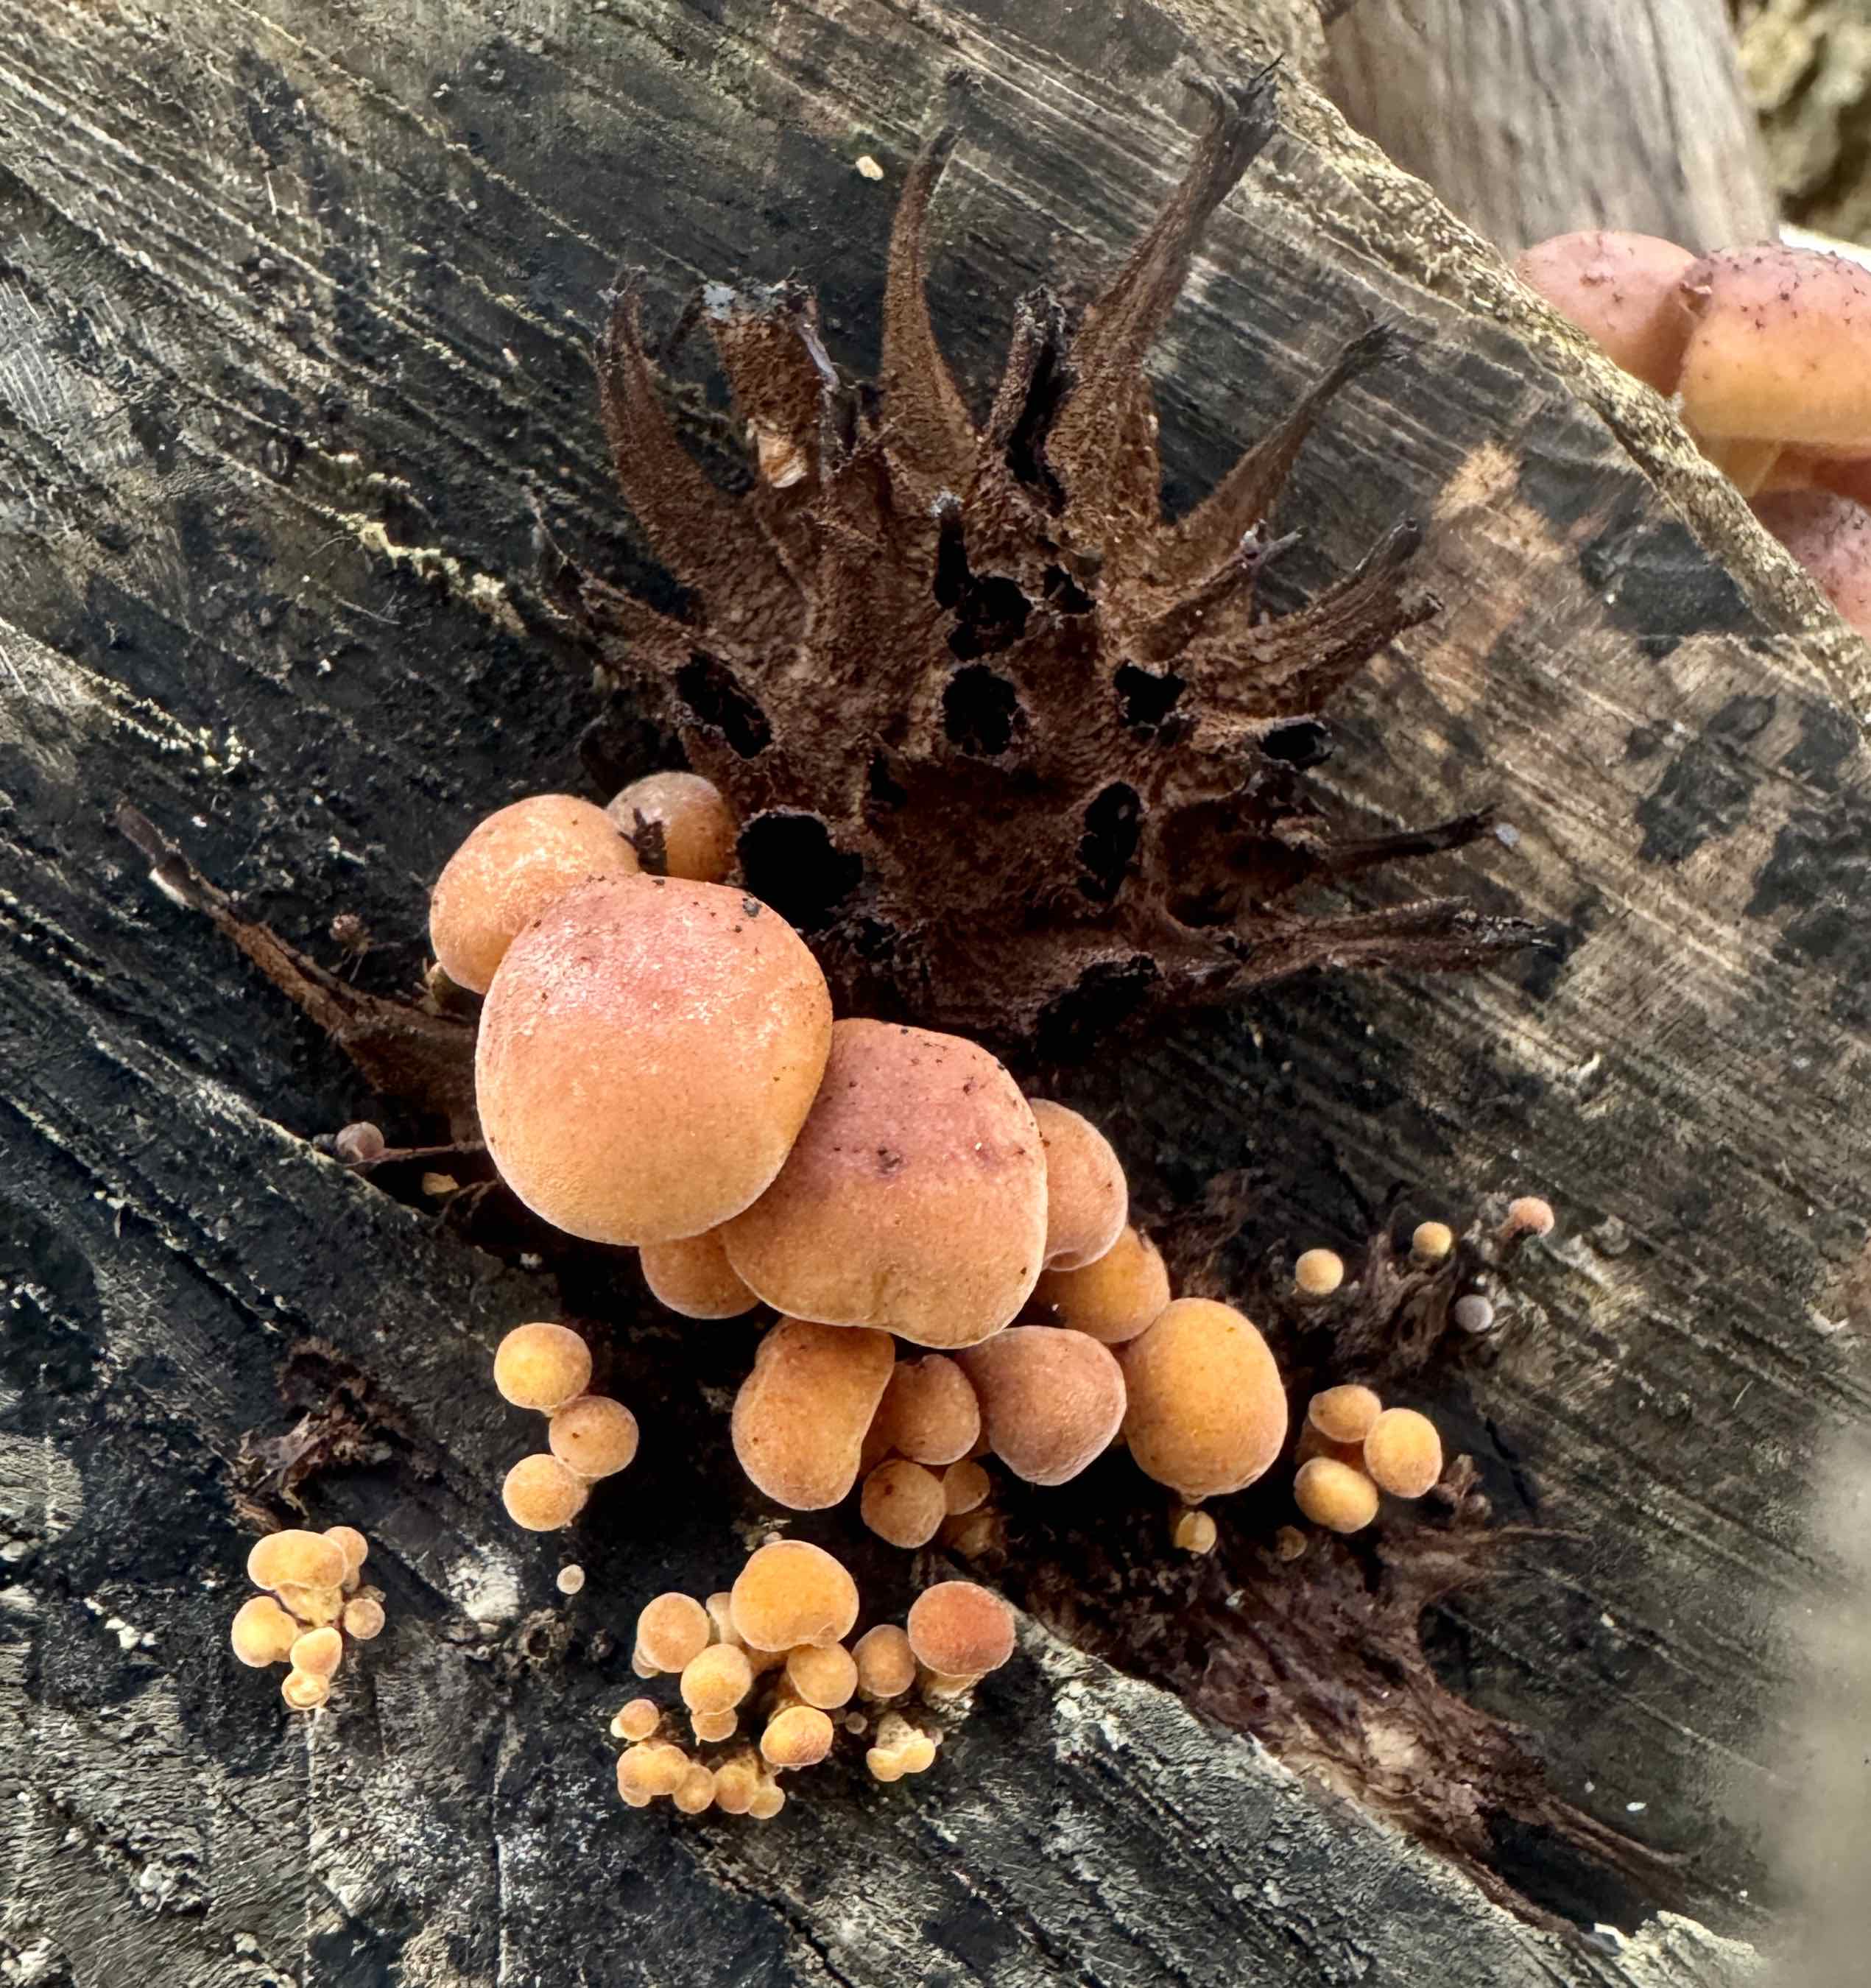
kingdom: Fungi
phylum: Basidiomycota
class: Agaricomycetes
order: Agaricales
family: Physalacriaceae
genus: Flammulina
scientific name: Flammulina velutipes
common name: gul fløjlsfod
